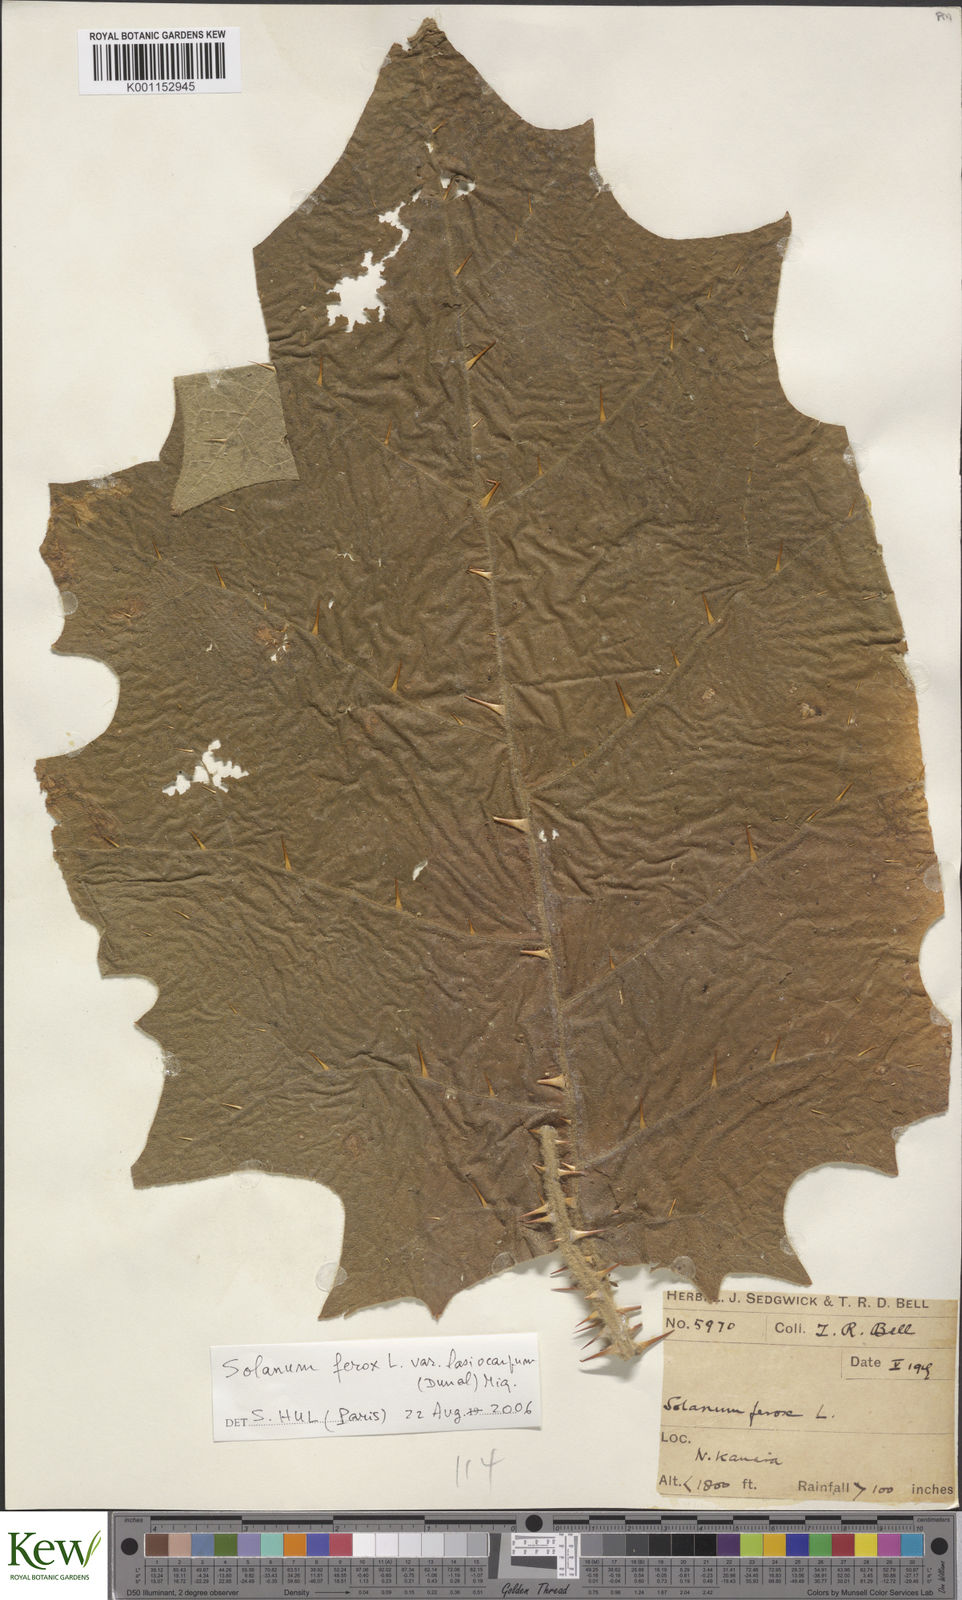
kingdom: Plantae
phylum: Tracheophyta
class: Magnoliopsida
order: Solanales
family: Solanaceae
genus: Solanum
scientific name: Solanum
